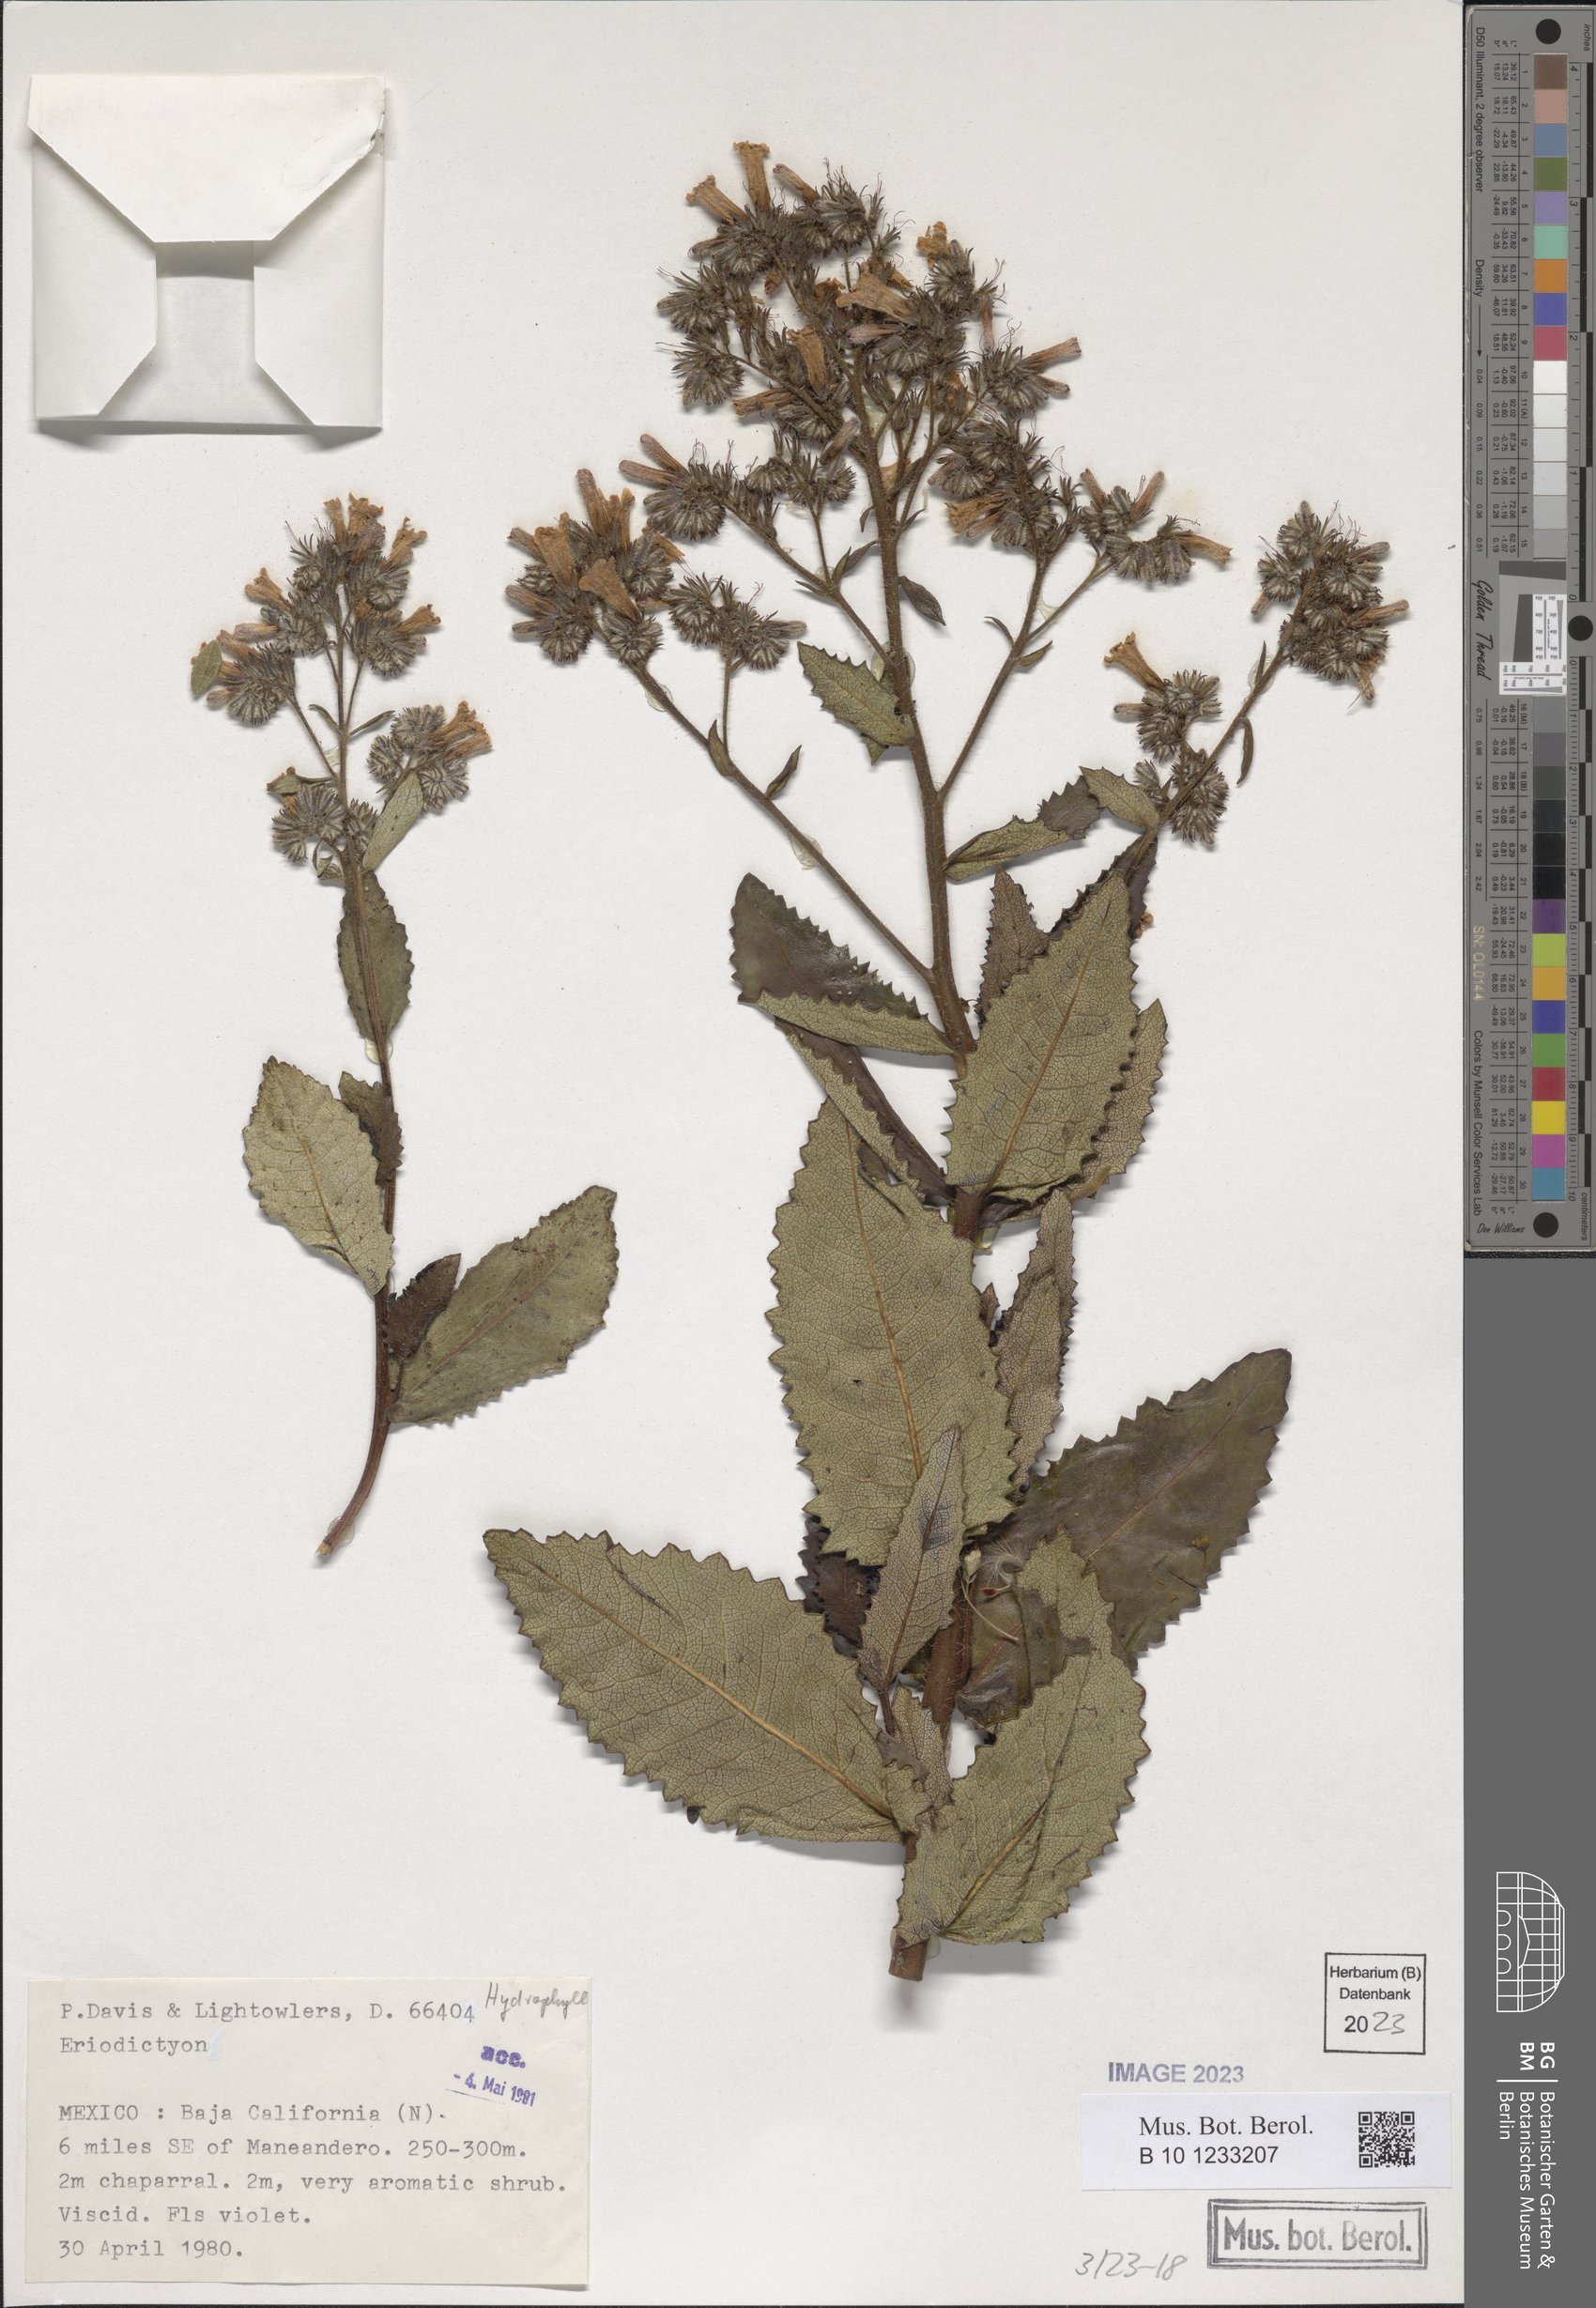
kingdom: Plantae
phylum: Tracheophyta
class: Magnoliopsida
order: Boraginales
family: Namaceae
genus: Eriodictyon
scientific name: Eriodictyon sessilifolium
